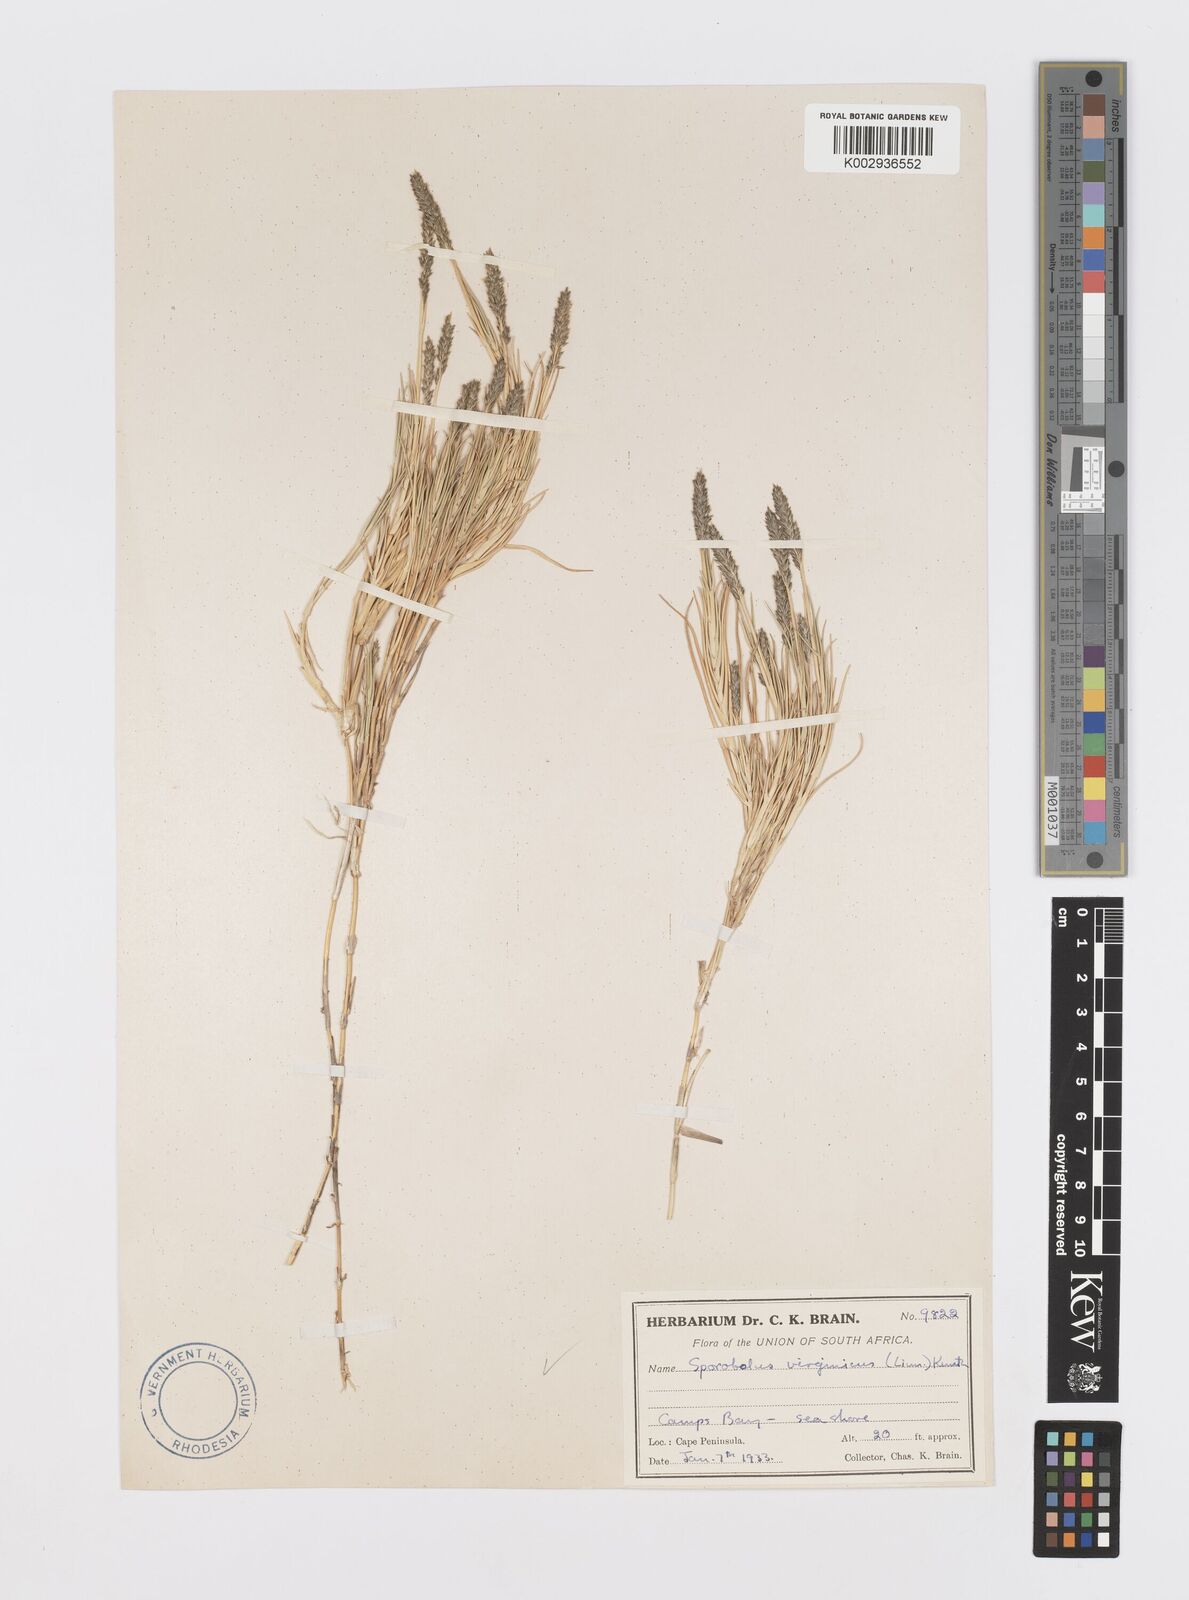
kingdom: Plantae
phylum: Tracheophyta
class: Liliopsida
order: Poales
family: Poaceae
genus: Sporobolus
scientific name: Sporobolus virginicus
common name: Beach dropseed
